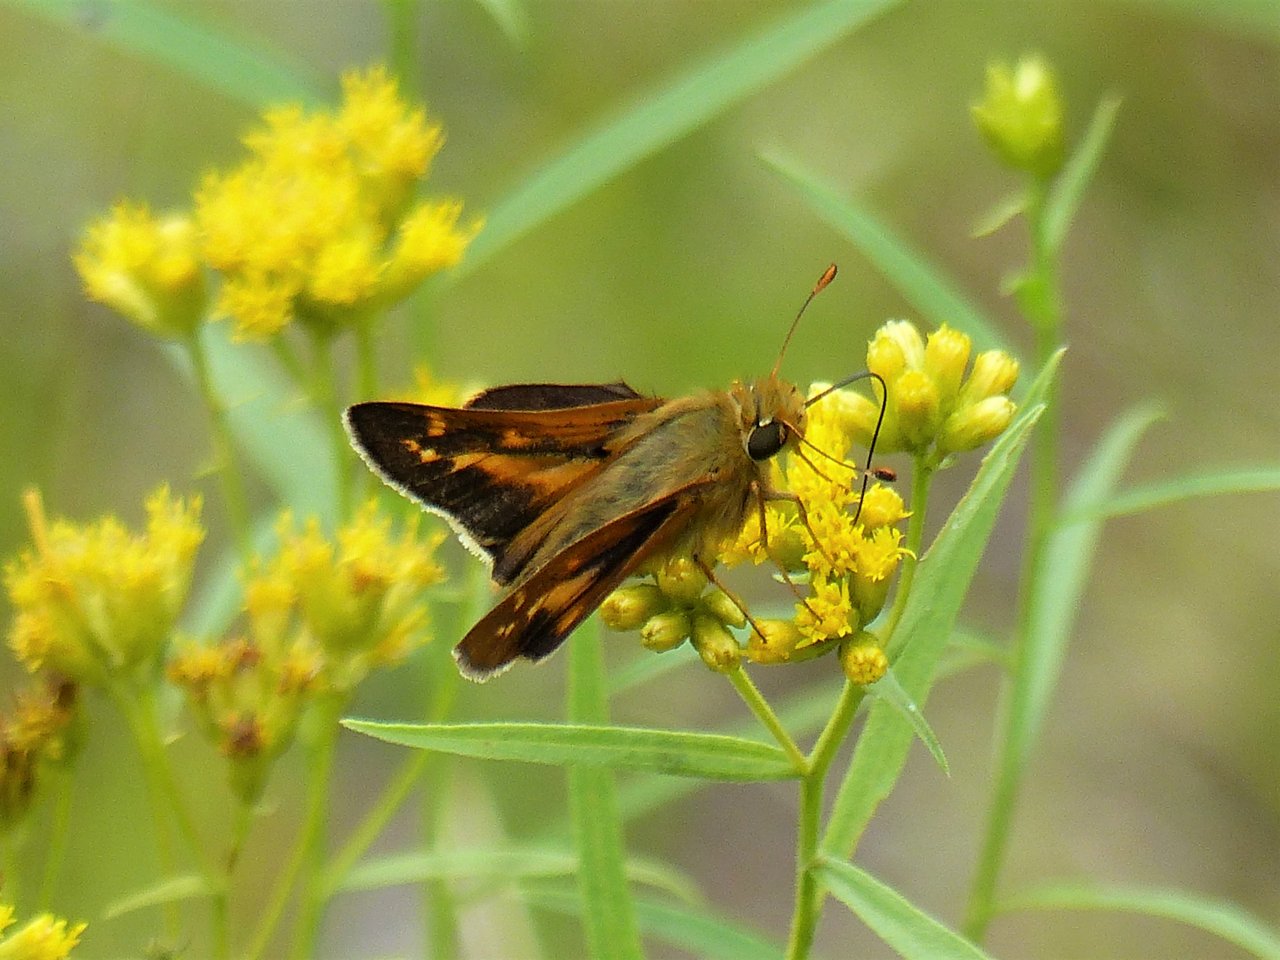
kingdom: Animalia
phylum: Arthropoda
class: Insecta
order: Lepidoptera
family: Hesperiidae
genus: Hesperia
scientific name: Hesperia leonardus
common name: Leonard's Skipper
